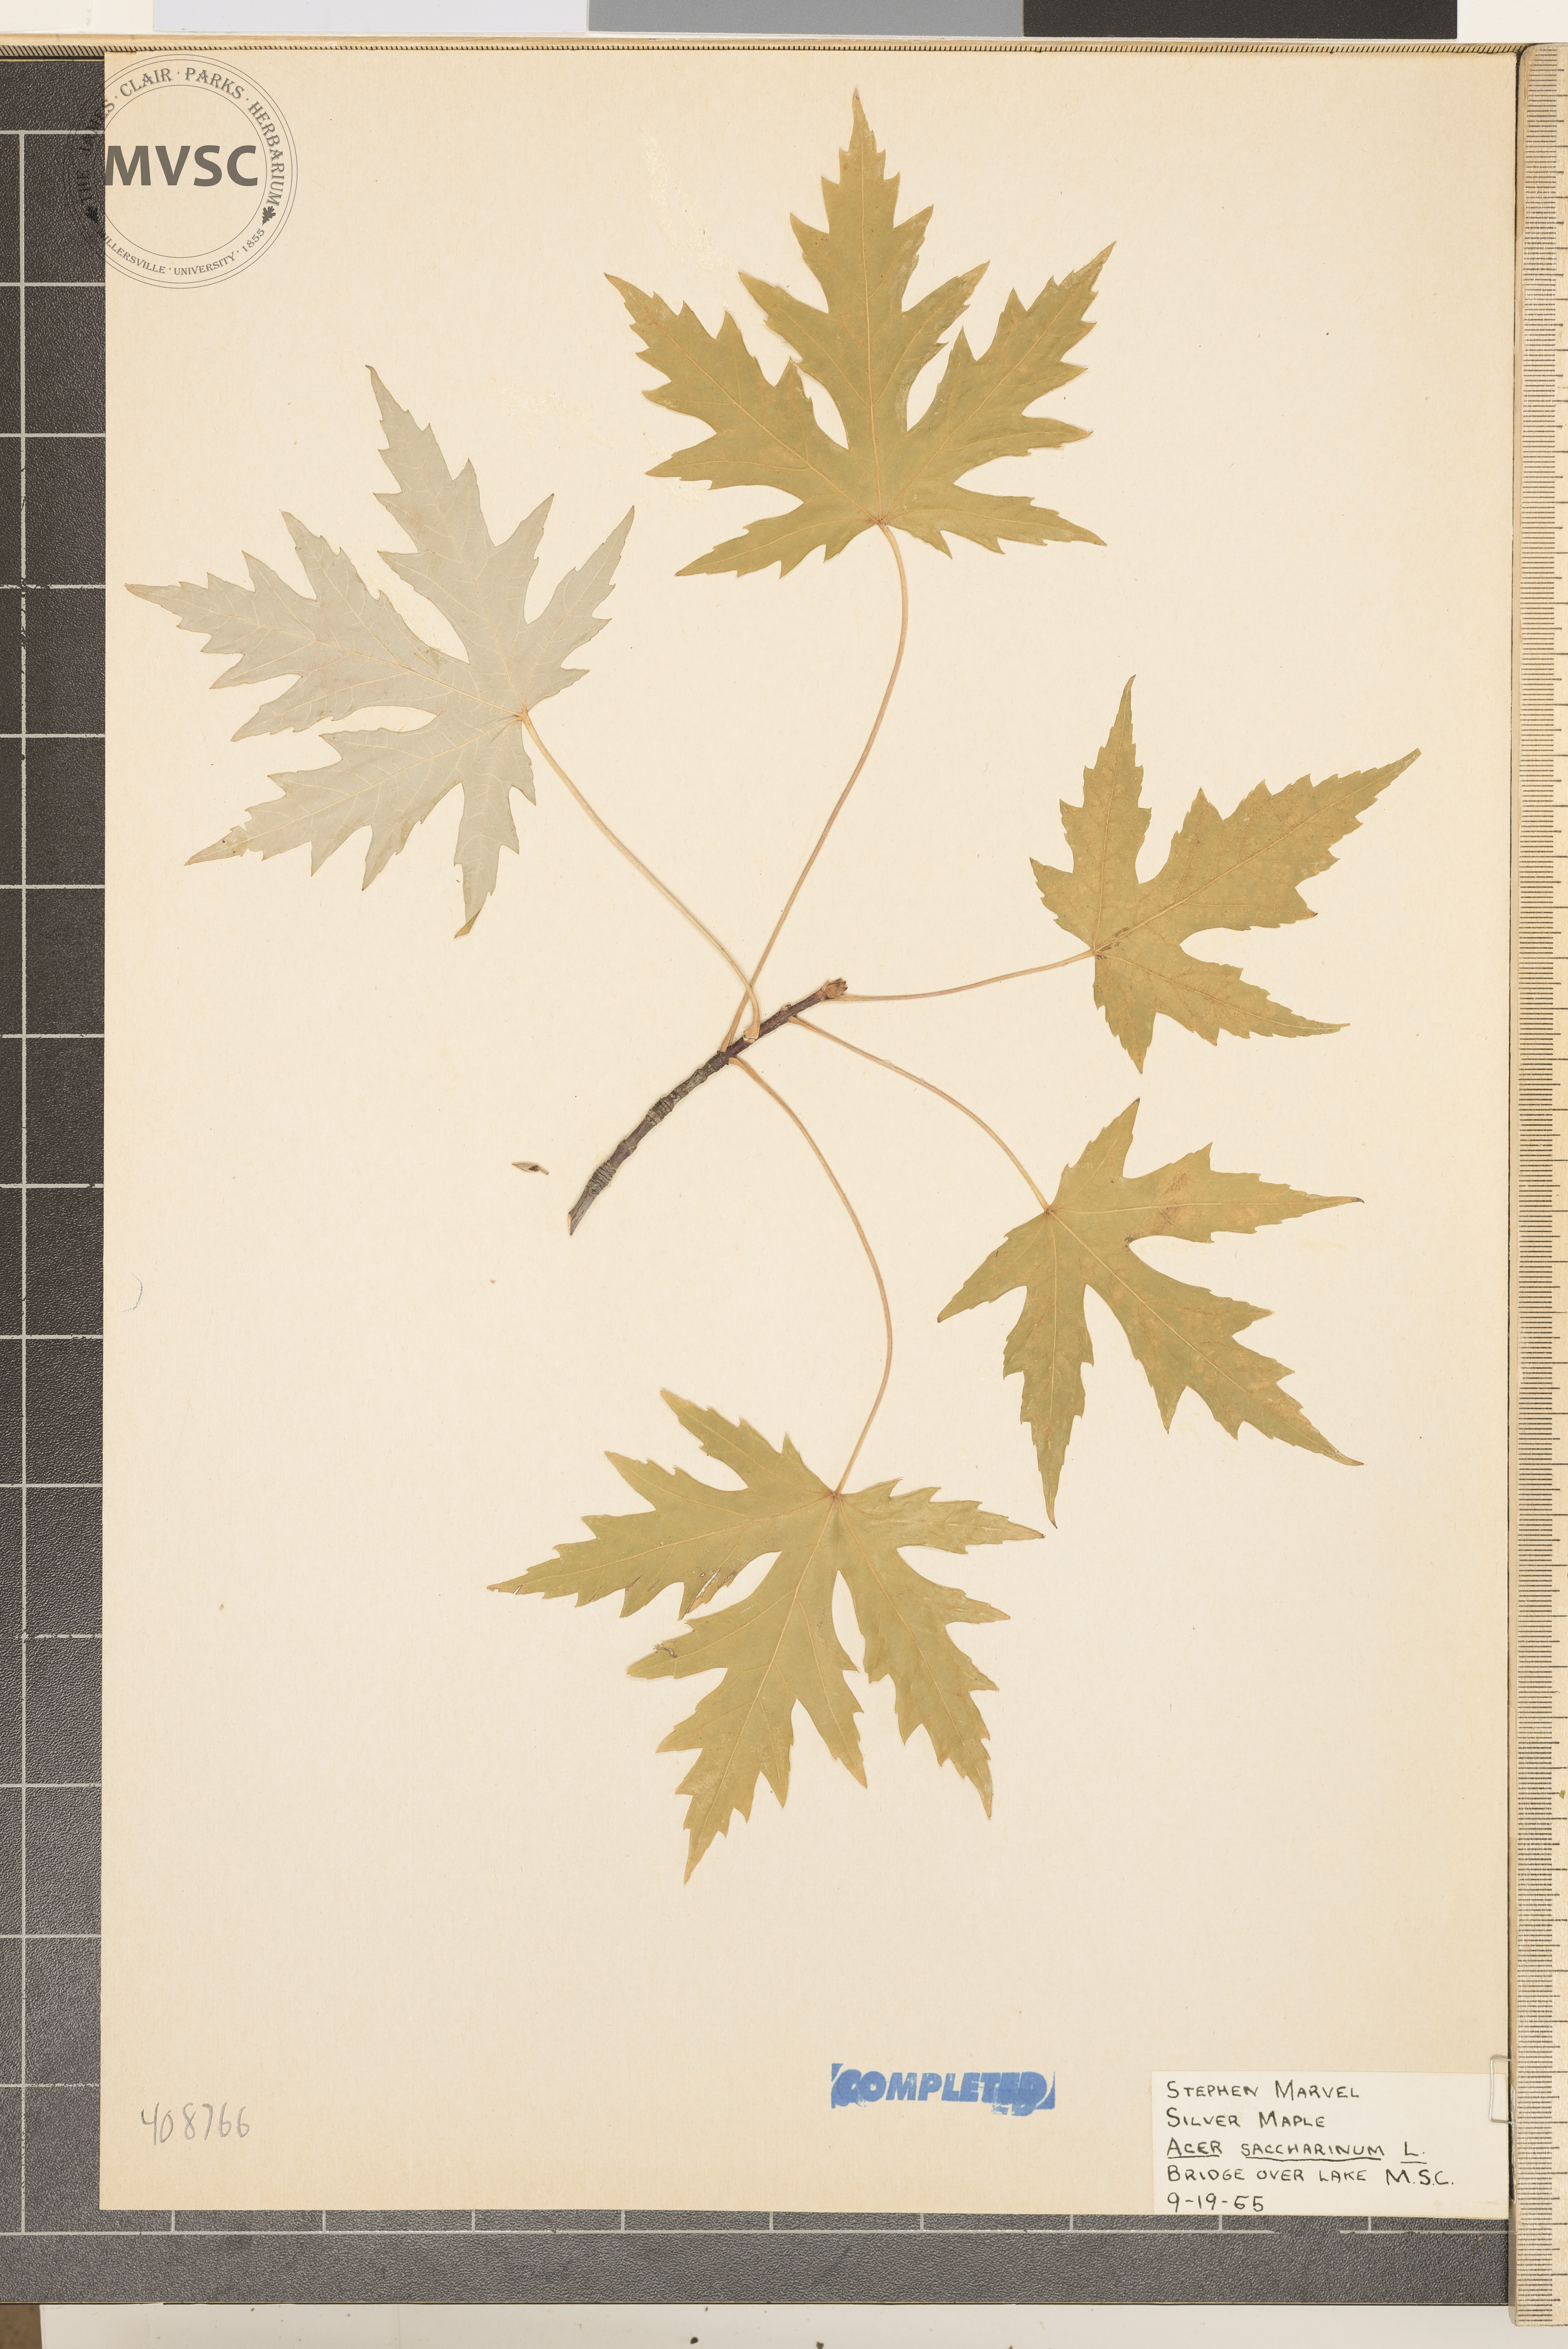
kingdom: Plantae
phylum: Tracheophyta
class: Magnoliopsida
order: Sapindales
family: Sapindaceae
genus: Acer
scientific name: Acer saccharinum
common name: Silver Maple
